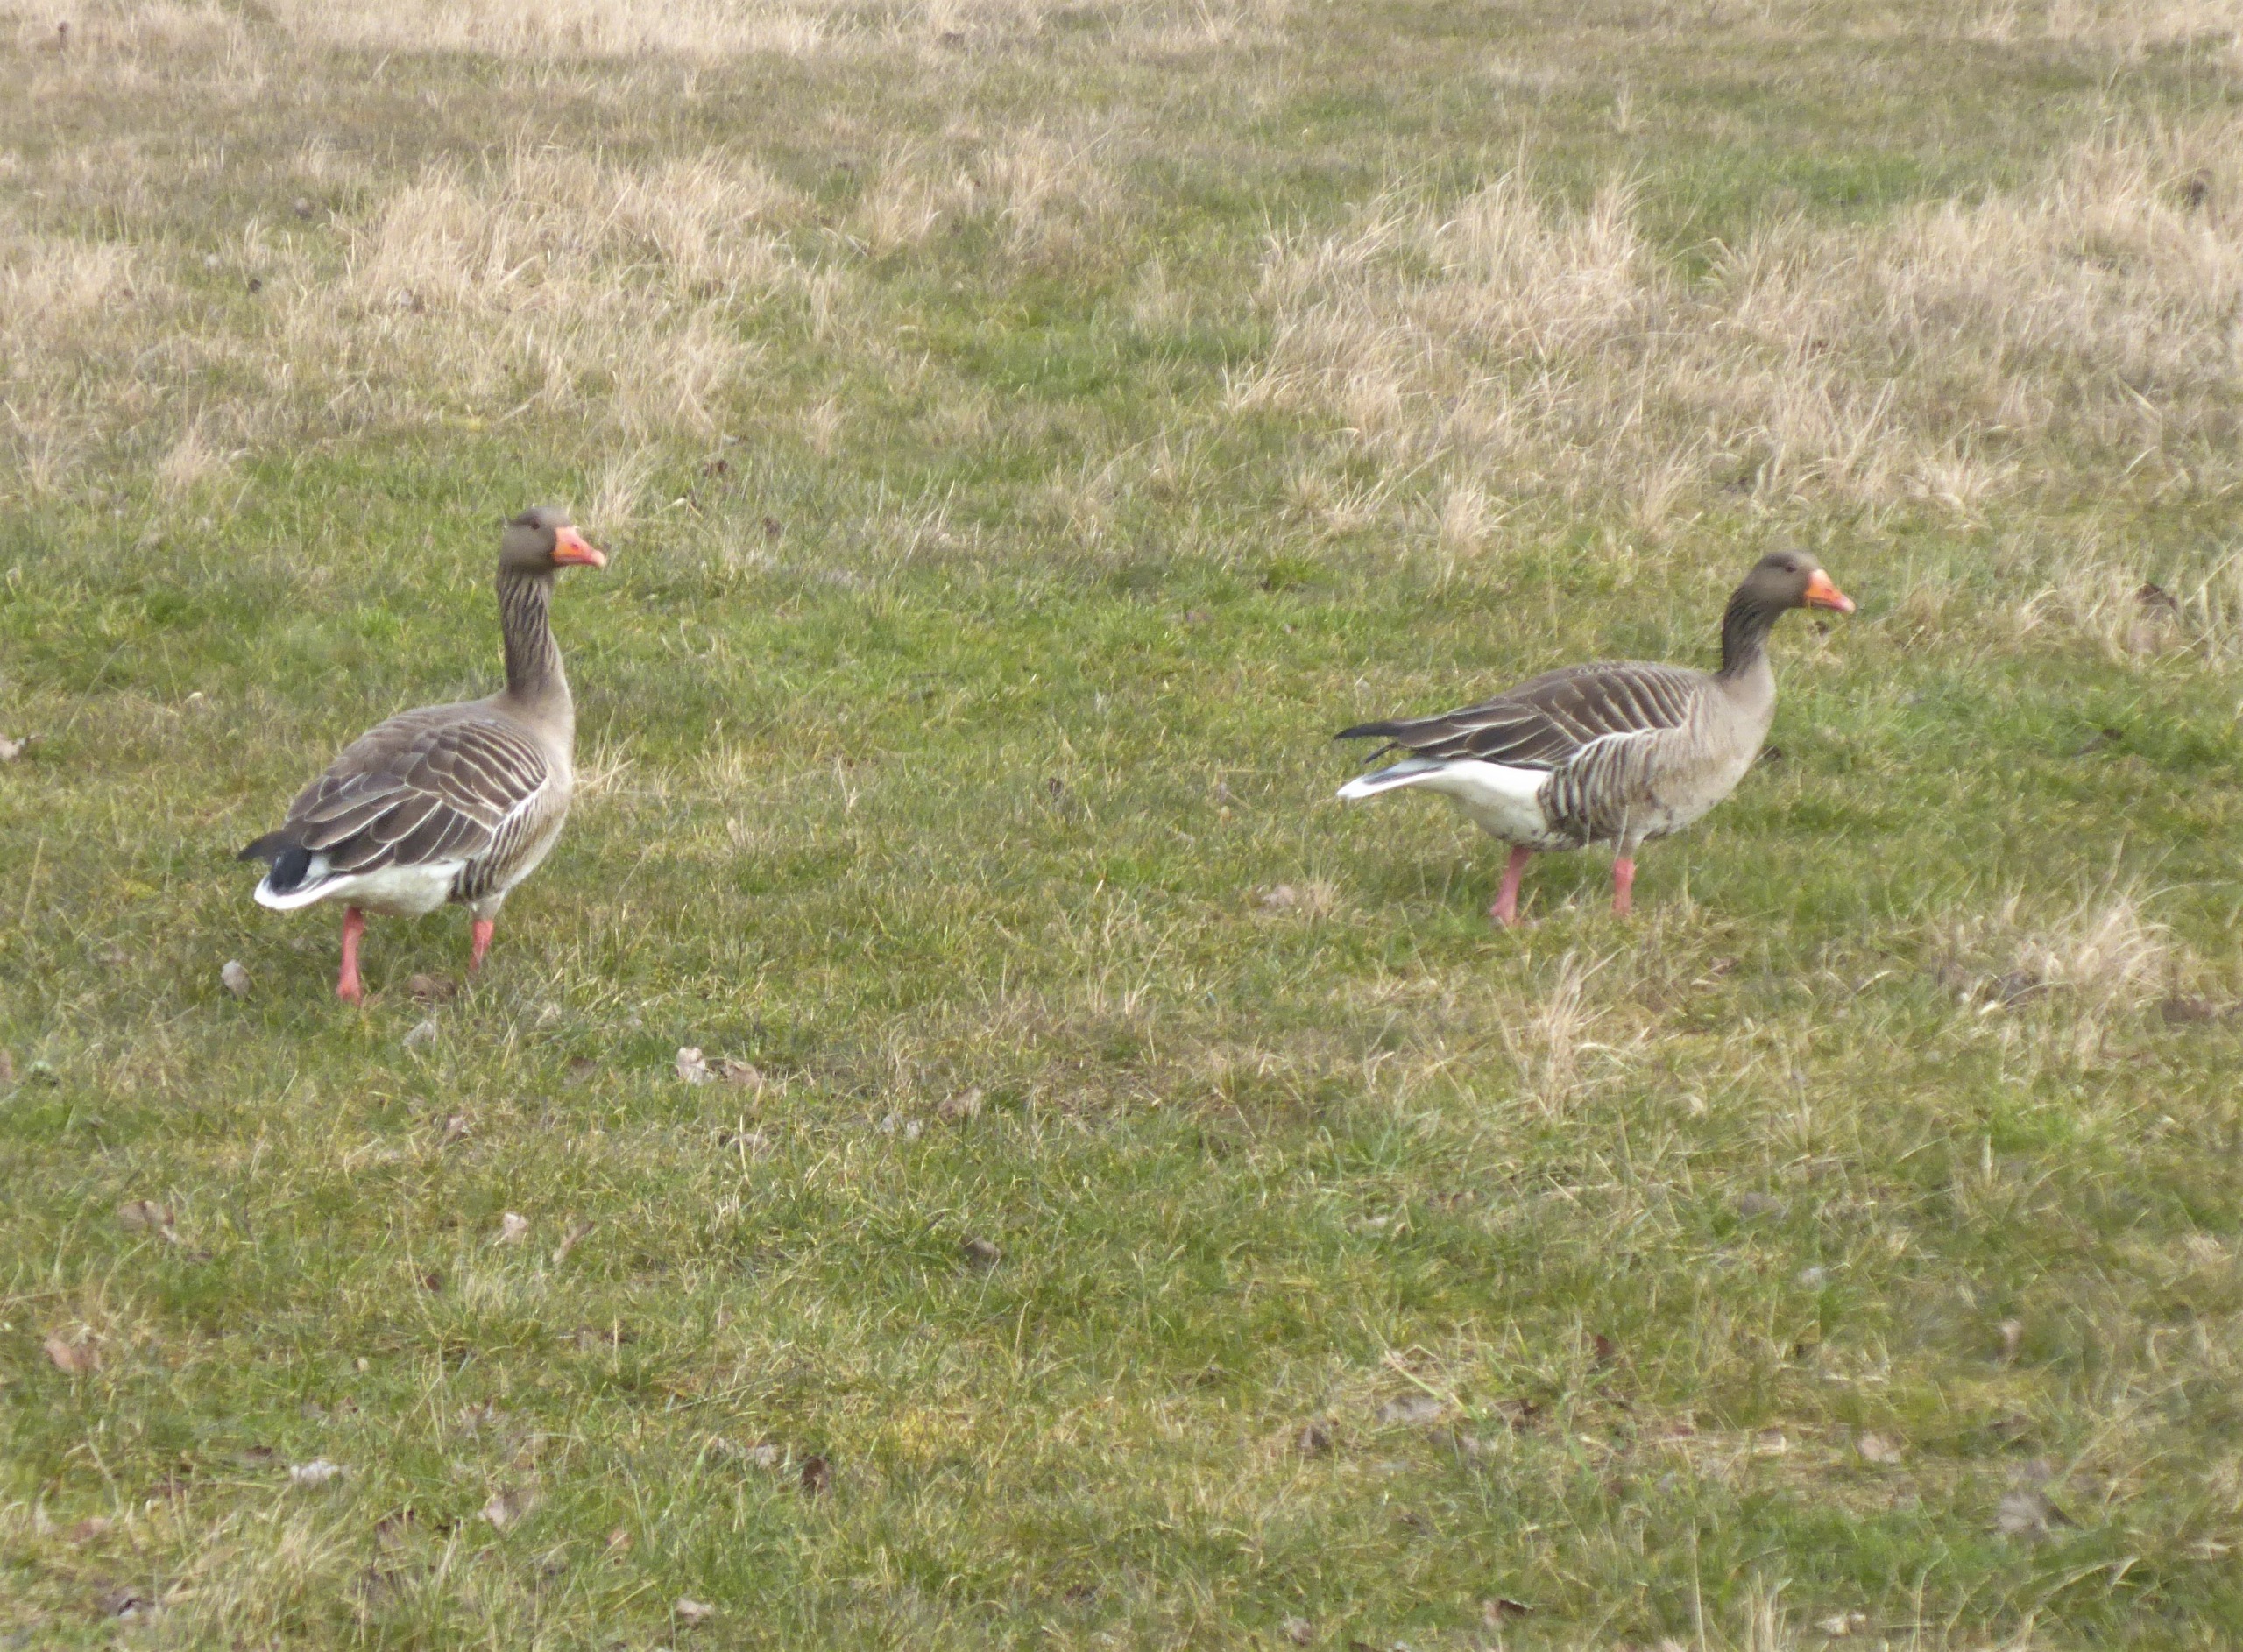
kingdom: Animalia
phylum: Chordata
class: Aves
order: Anseriformes
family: Anatidae
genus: Anser
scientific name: Anser anser
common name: Grågås
